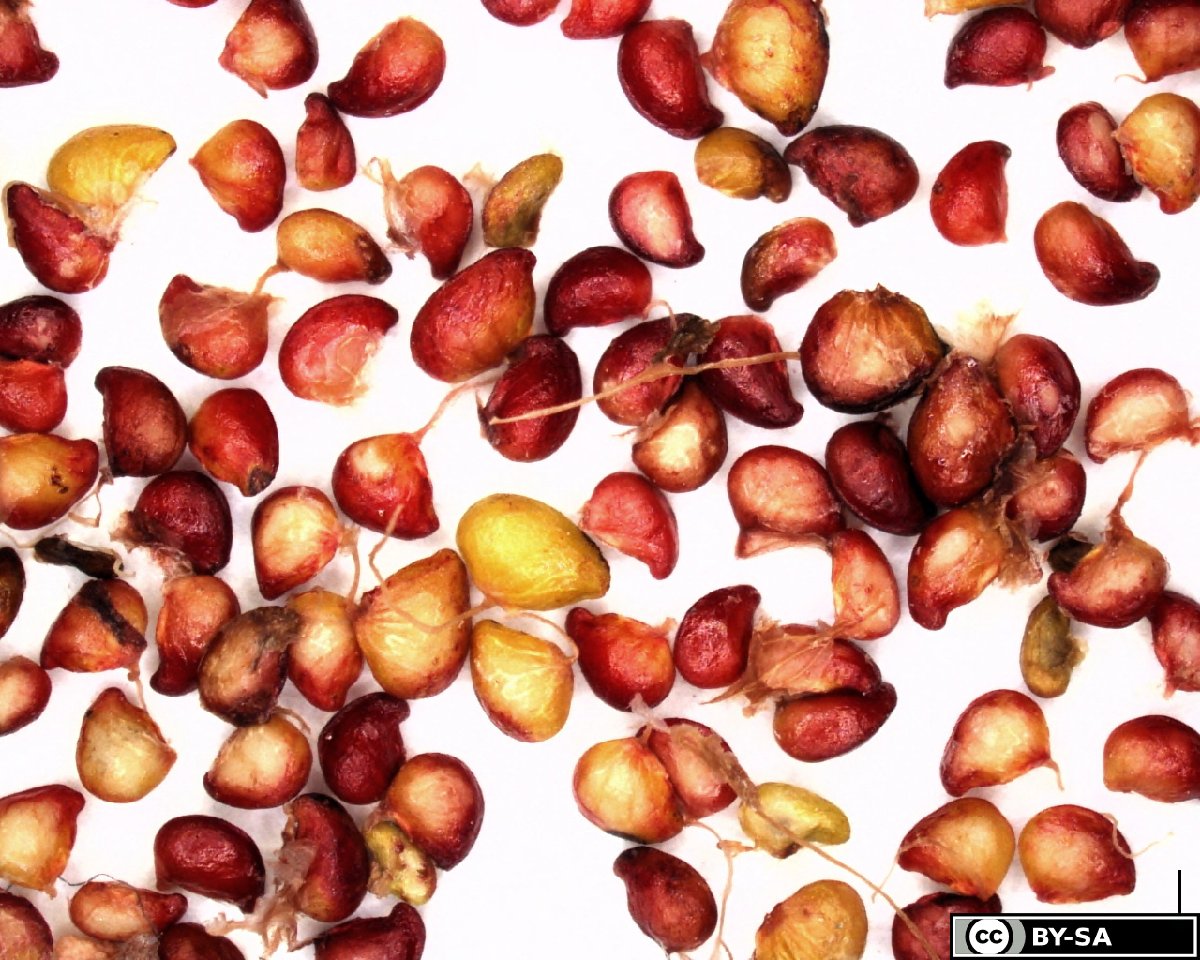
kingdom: Plantae
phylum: Tracheophyta
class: Magnoliopsida
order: Rosales
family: Rosaceae
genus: Fragaria
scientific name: Fragaria vesca
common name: Wild strawberry
